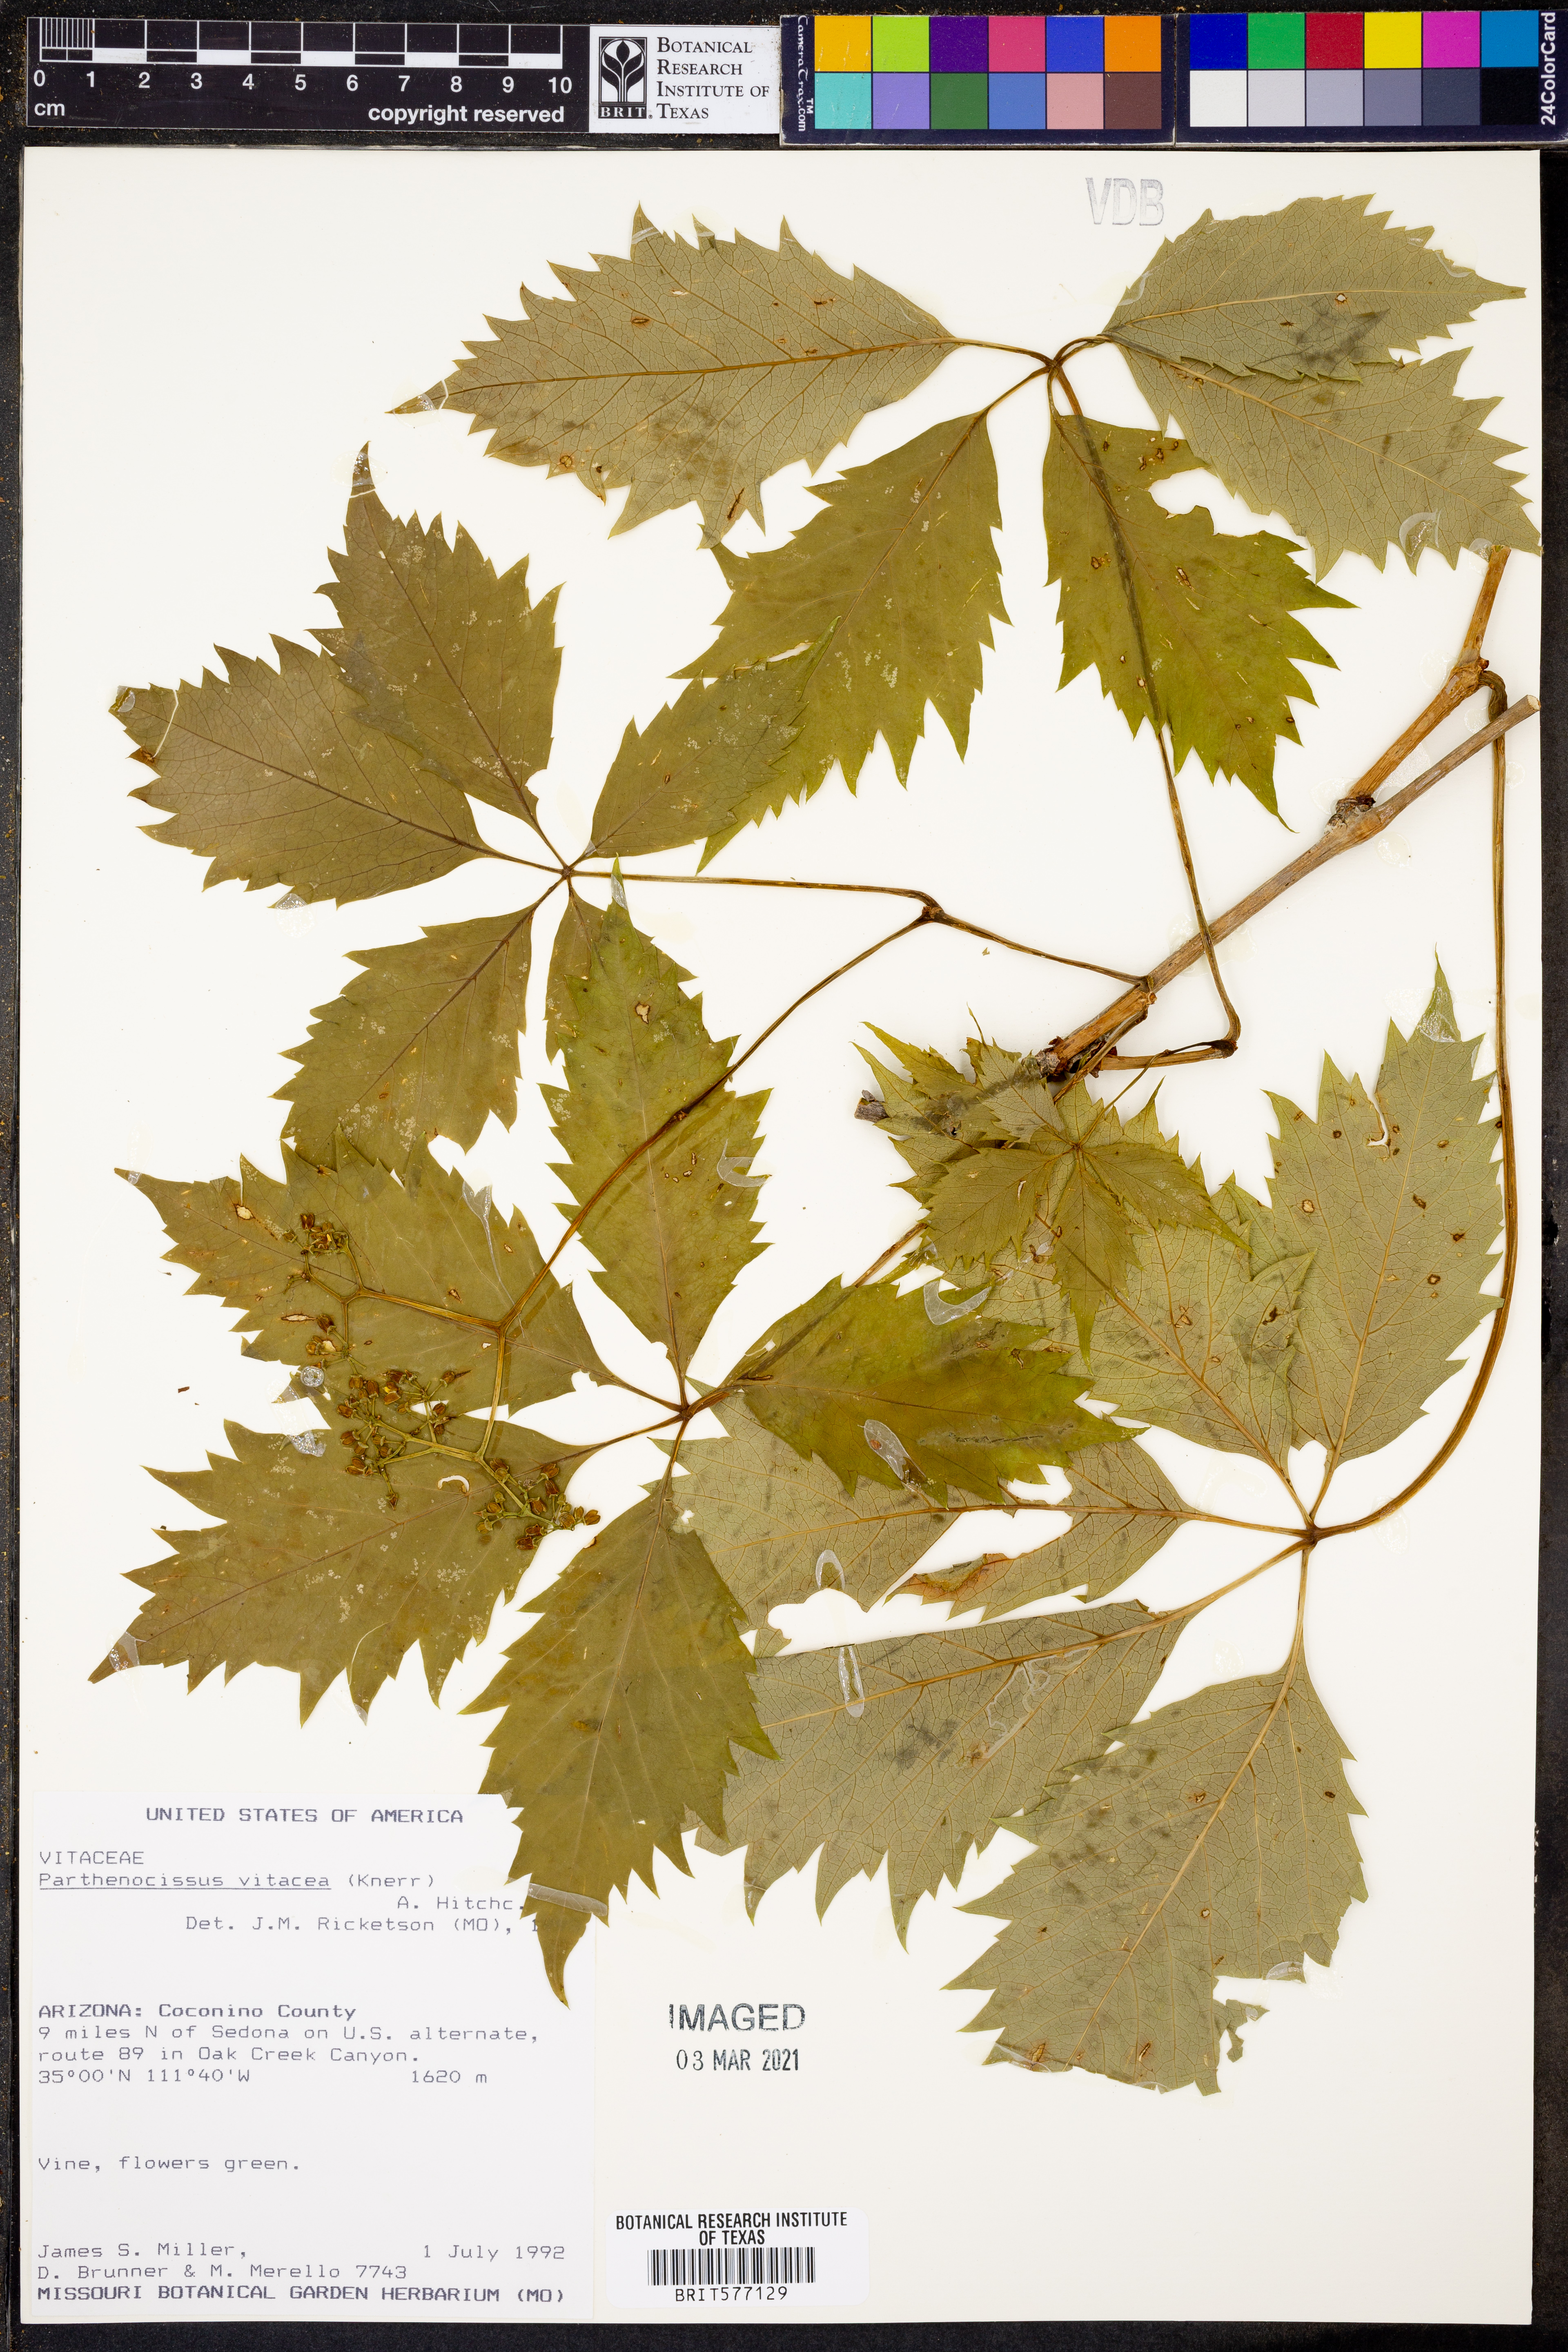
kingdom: Plantae
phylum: Tracheophyta
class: Magnoliopsida
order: Vitales
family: Vitaceae
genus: Parthenocissus
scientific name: Parthenocissus inserta
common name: False virginia-creeper
